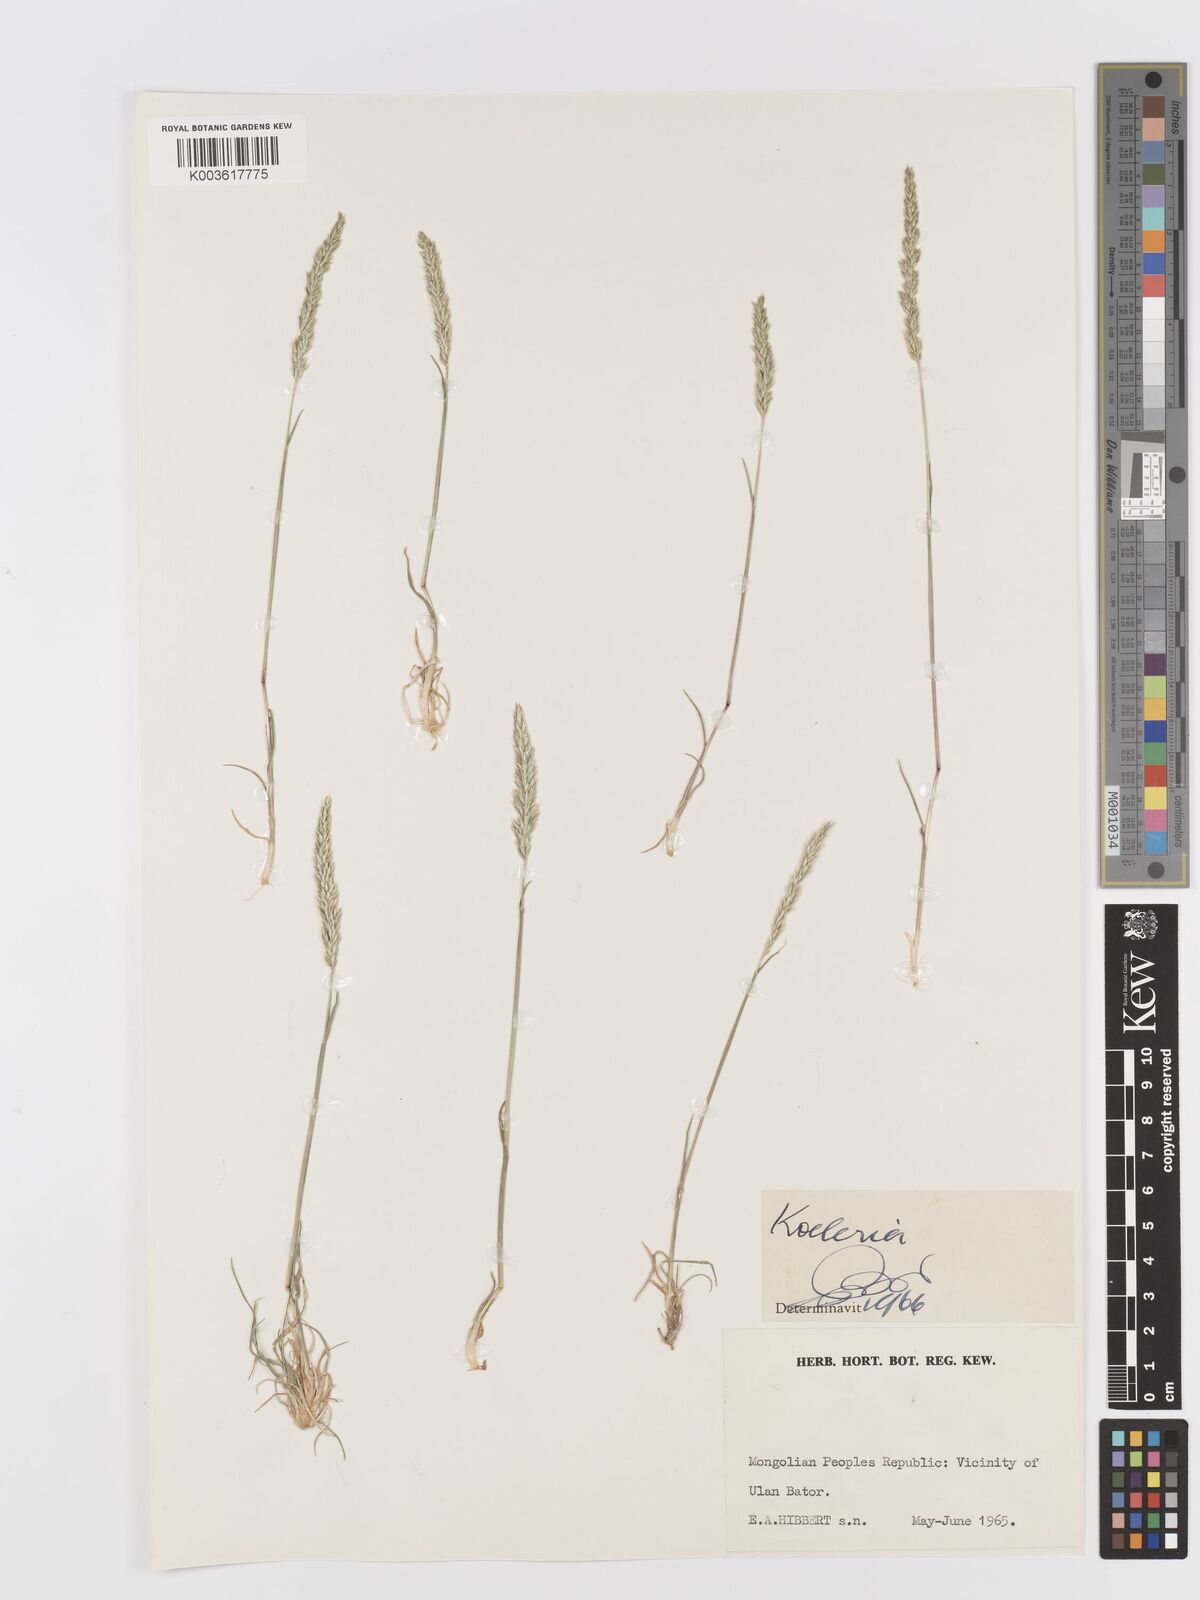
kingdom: Plantae
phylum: Tracheophyta
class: Liliopsida
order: Poales
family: Poaceae
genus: Koeleria
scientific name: Koeleria
